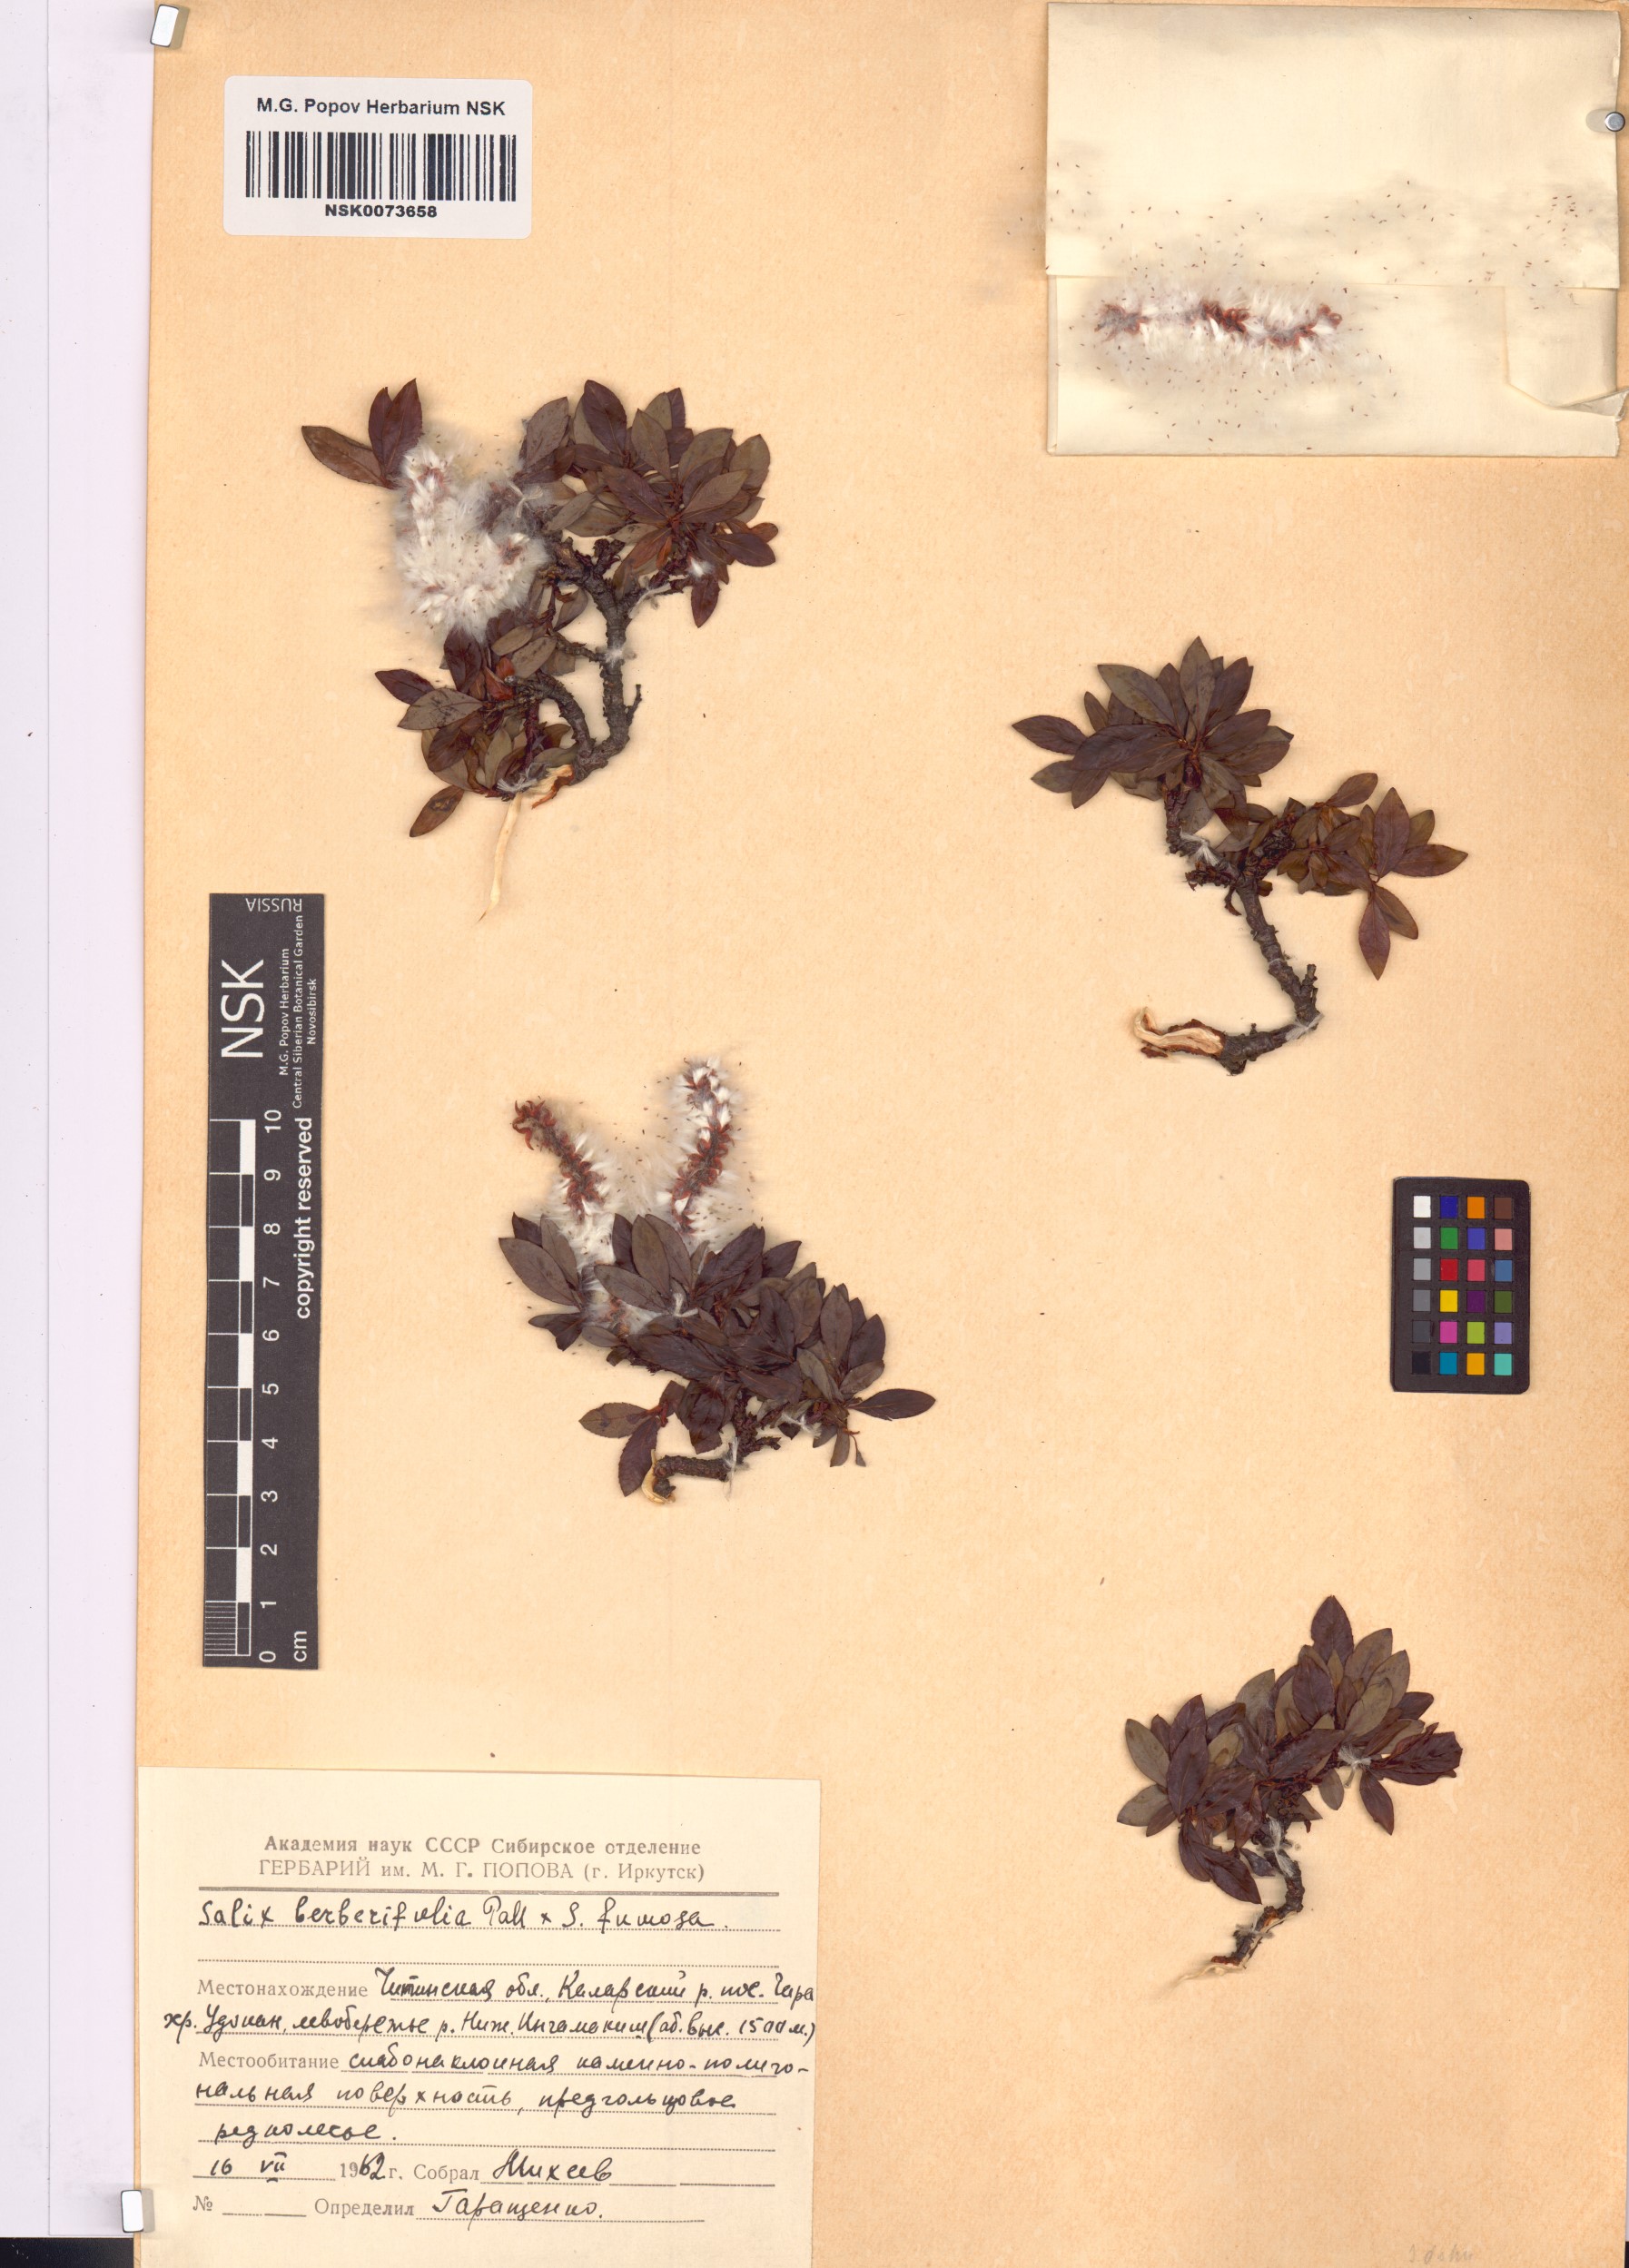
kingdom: Plantae
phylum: Tracheophyta
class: Magnoliopsida
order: Malpighiales
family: Salicaceae
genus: Salix
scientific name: Salix
